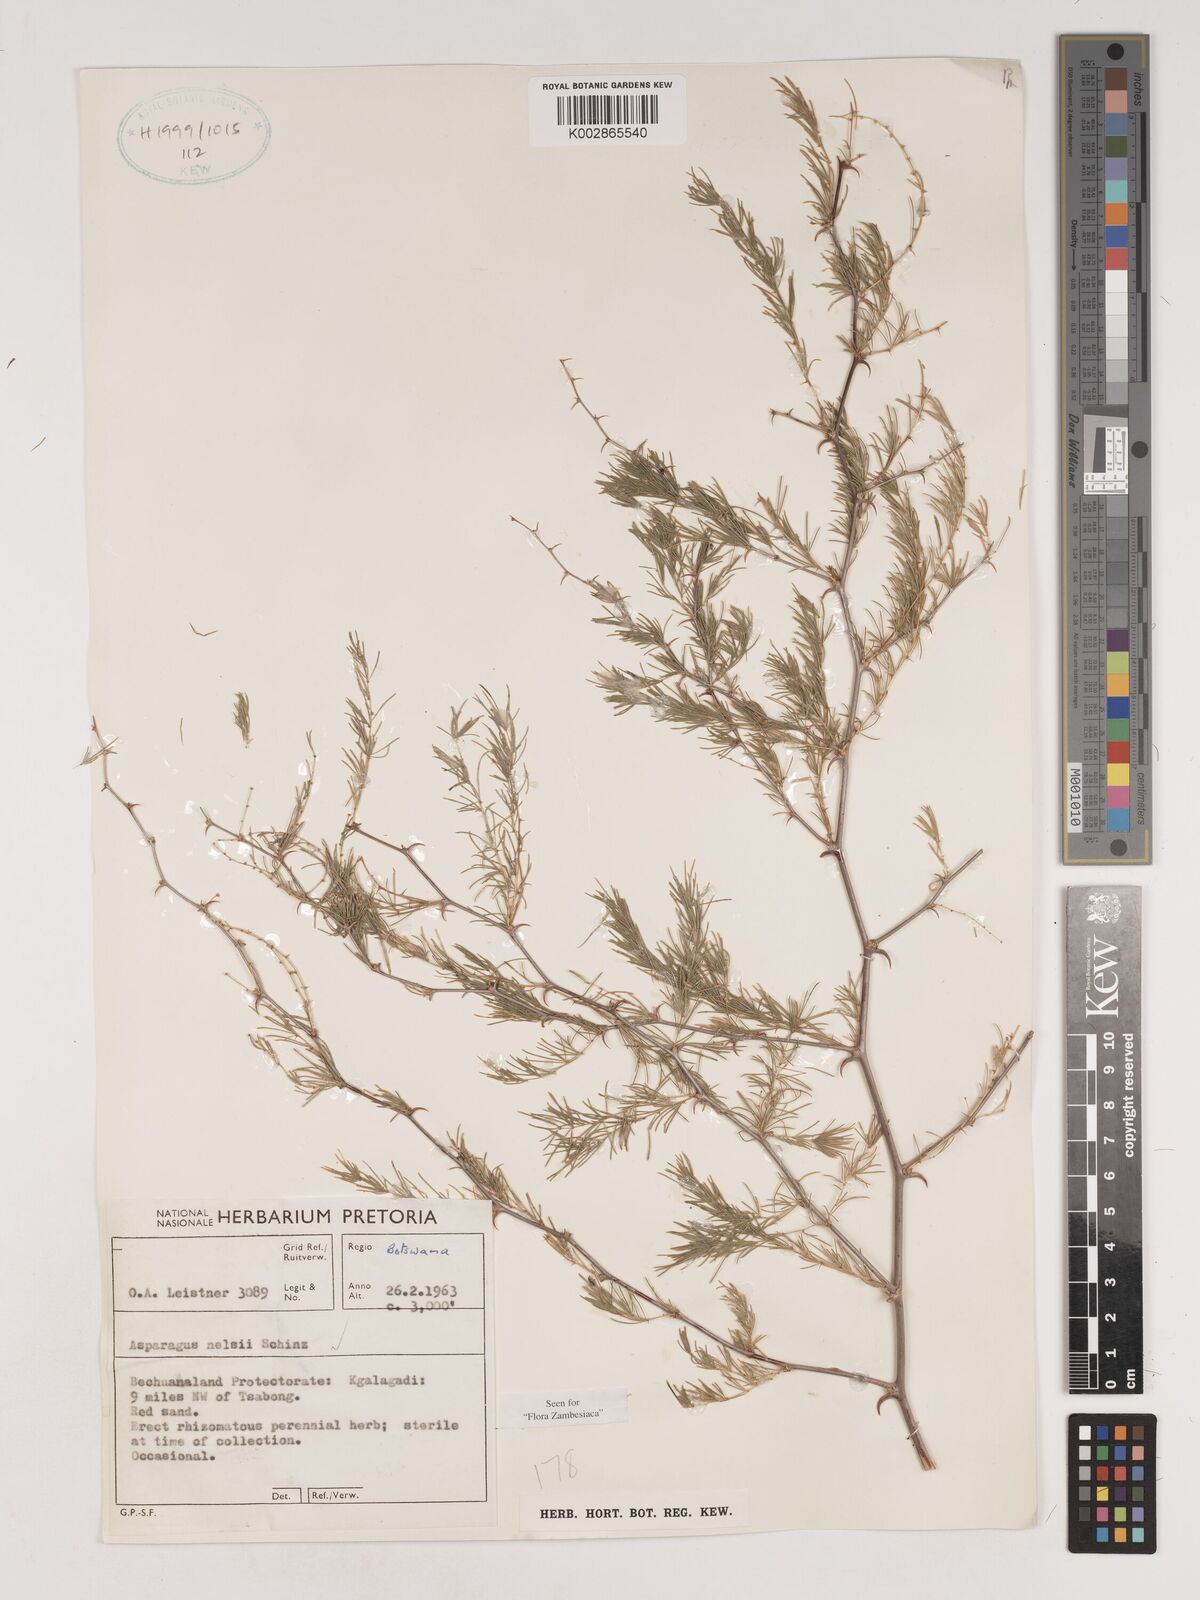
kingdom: Plantae
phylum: Tracheophyta
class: Liliopsida
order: Asparagales
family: Asparagaceae
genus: Asparagus
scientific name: Asparagus nelsii
